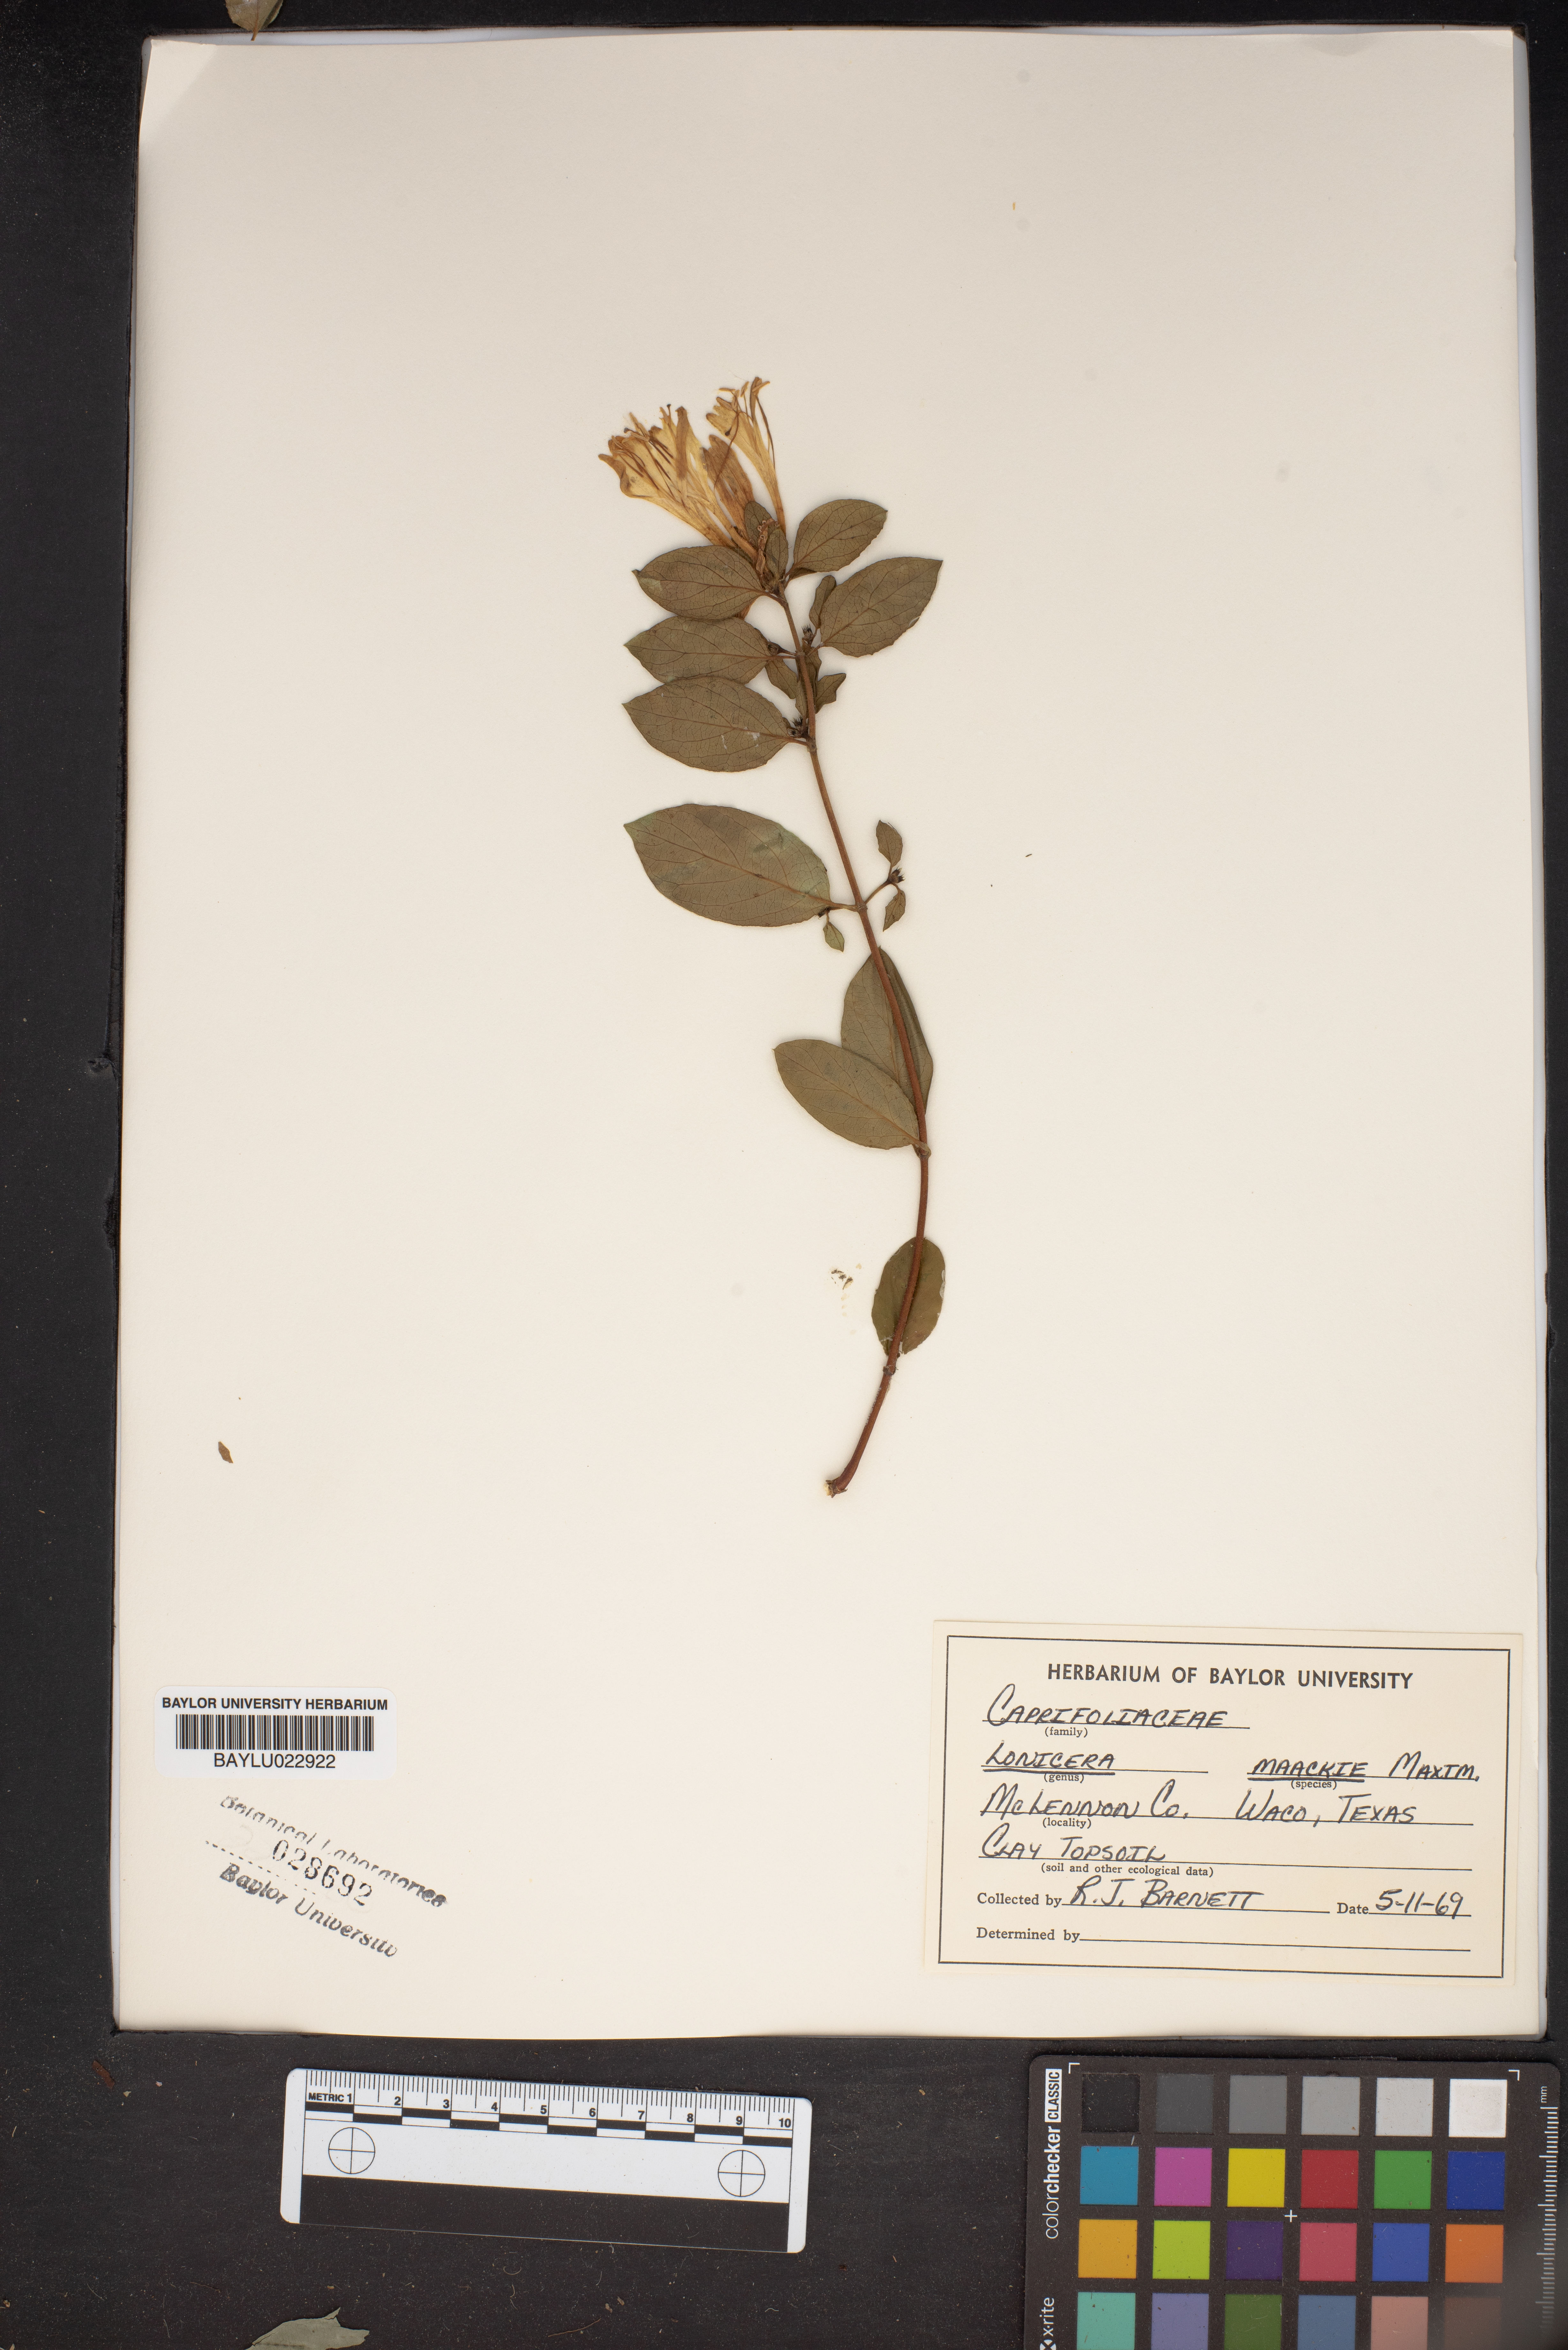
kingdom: Plantae
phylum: Tracheophyta
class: Magnoliopsida
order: Dipsacales
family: Caprifoliaceae
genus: Lonicera
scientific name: Lonicera maackii
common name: Amur honeysuckle
